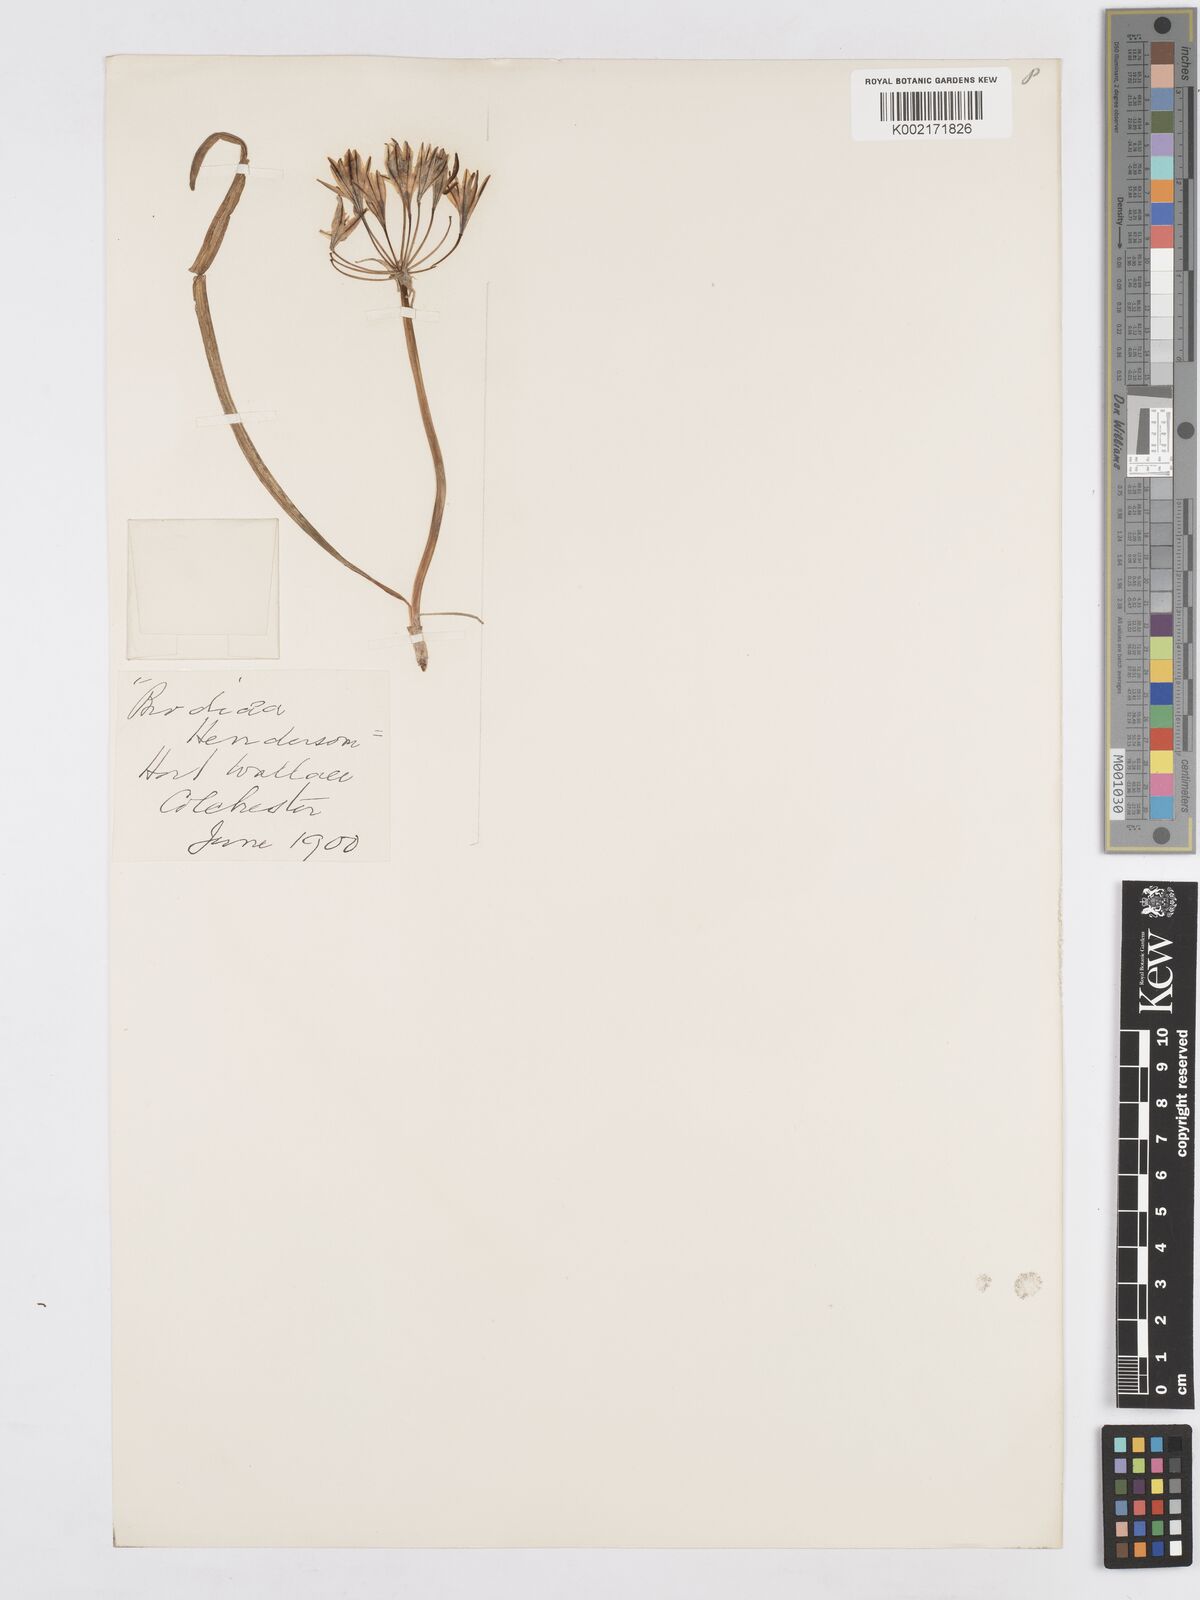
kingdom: Plantae
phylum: Tracheophyta
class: Liliopsida
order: Asparagales
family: Asparagaceae
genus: Triteleia
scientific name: Triteleia hendersonii
